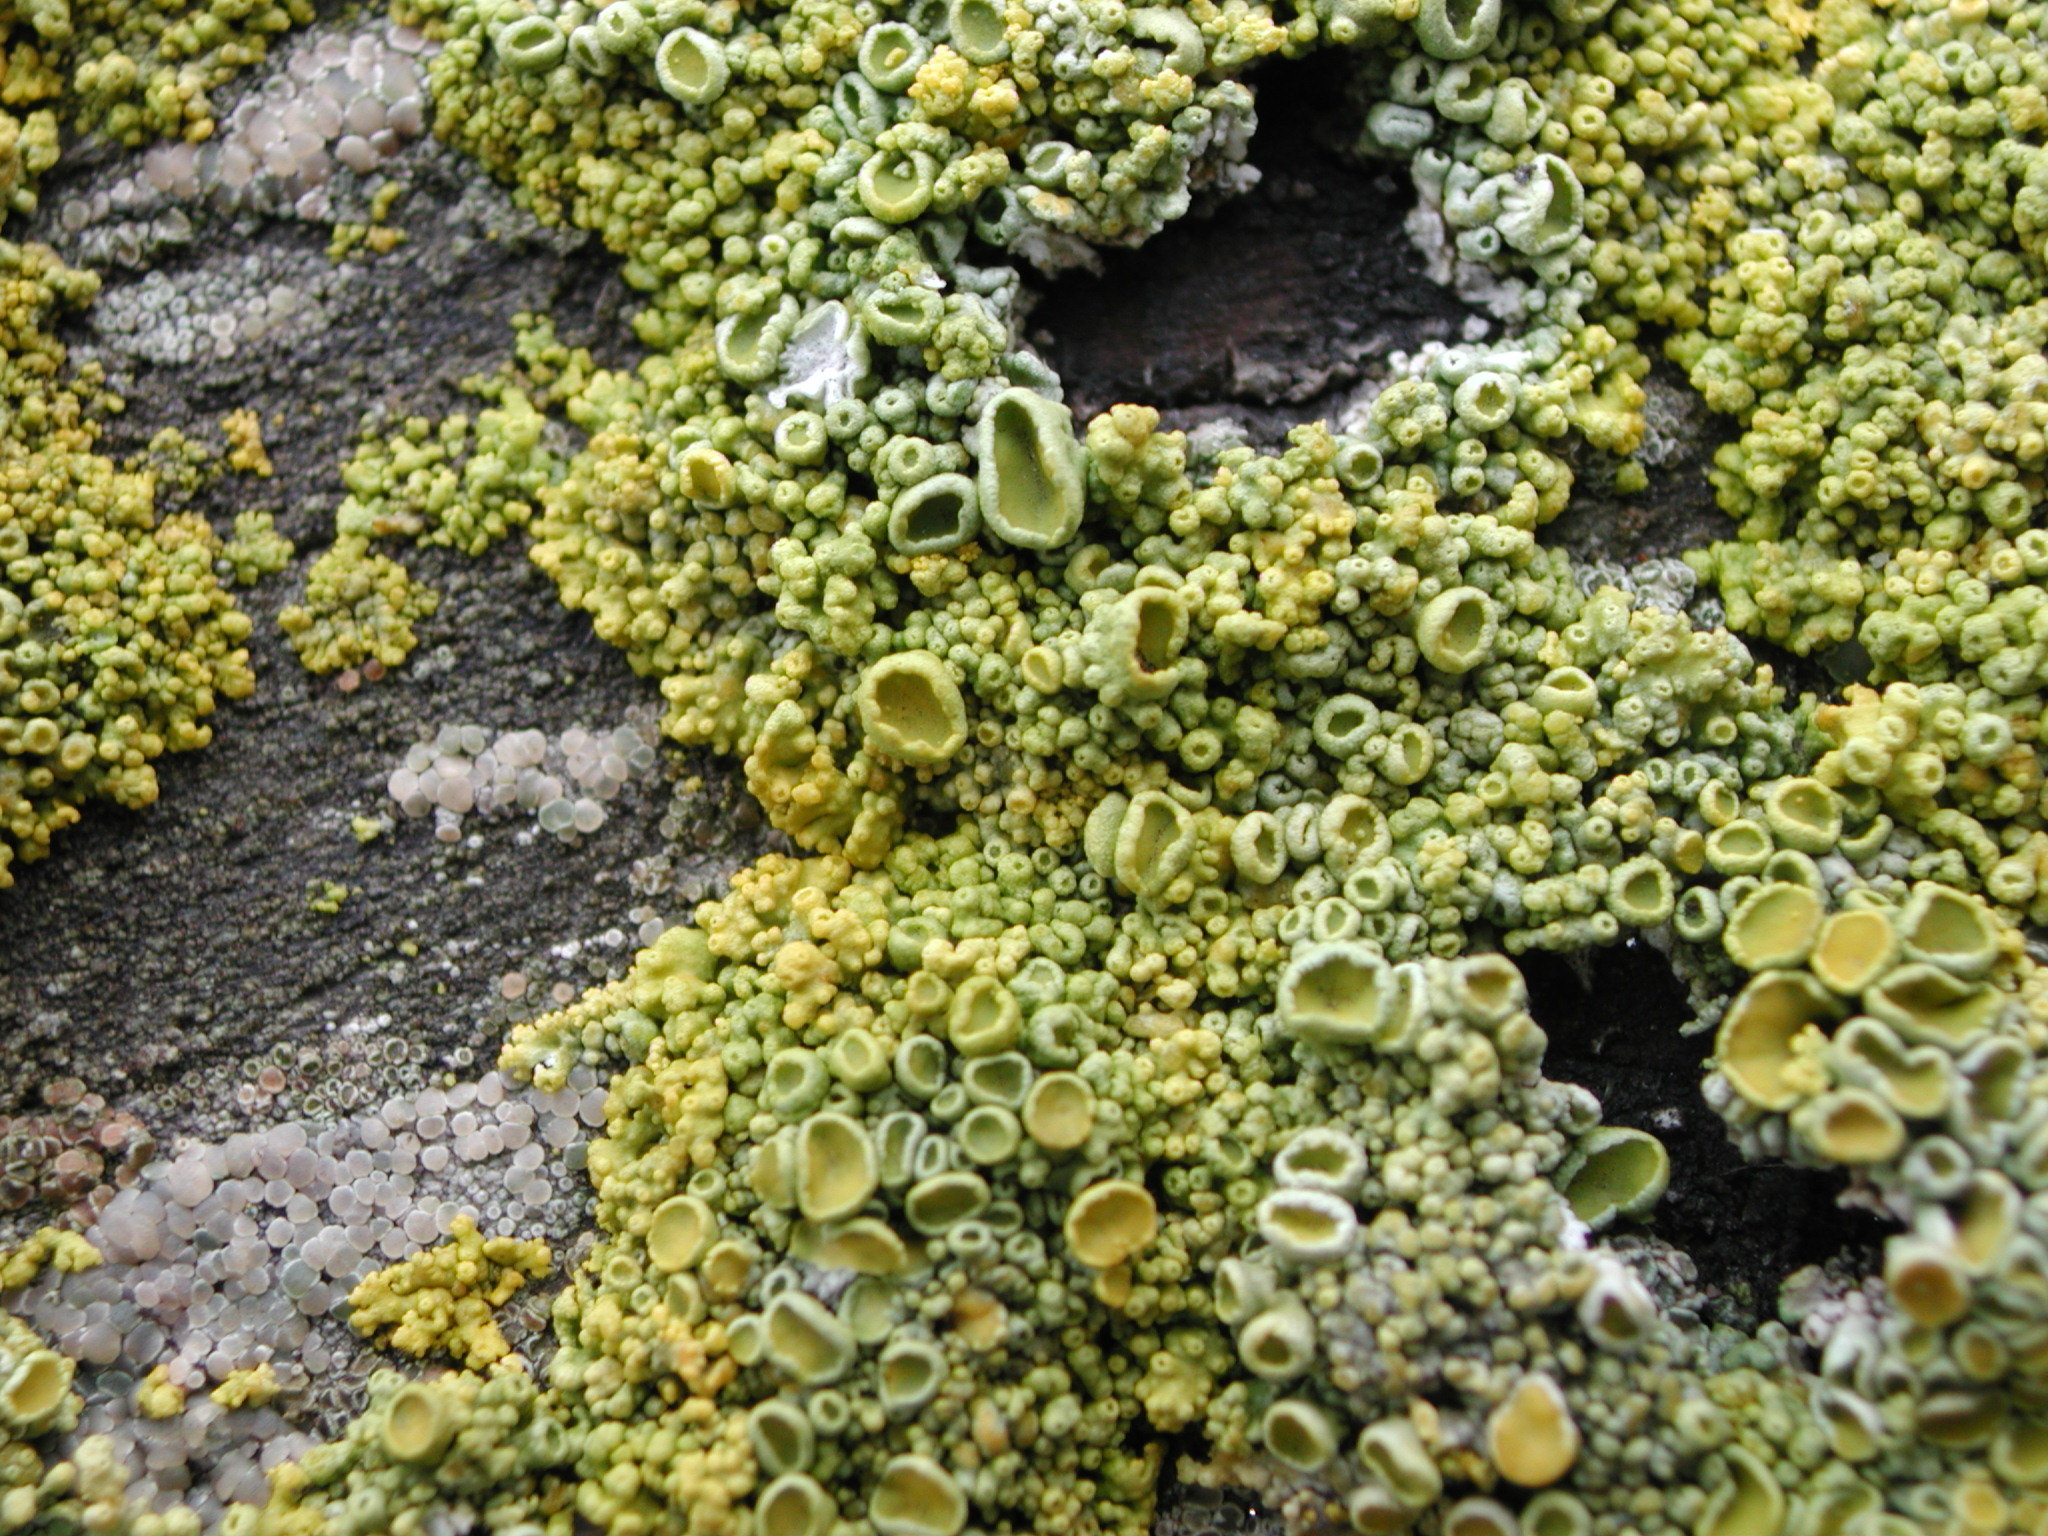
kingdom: Fungi
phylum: Ascomycota
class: Lecanoromycetes
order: Teloschistales
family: Teloschistaceae
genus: Polycauliona
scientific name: Polycauliona polycarpa
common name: Pin-cushion sunburst lichen
